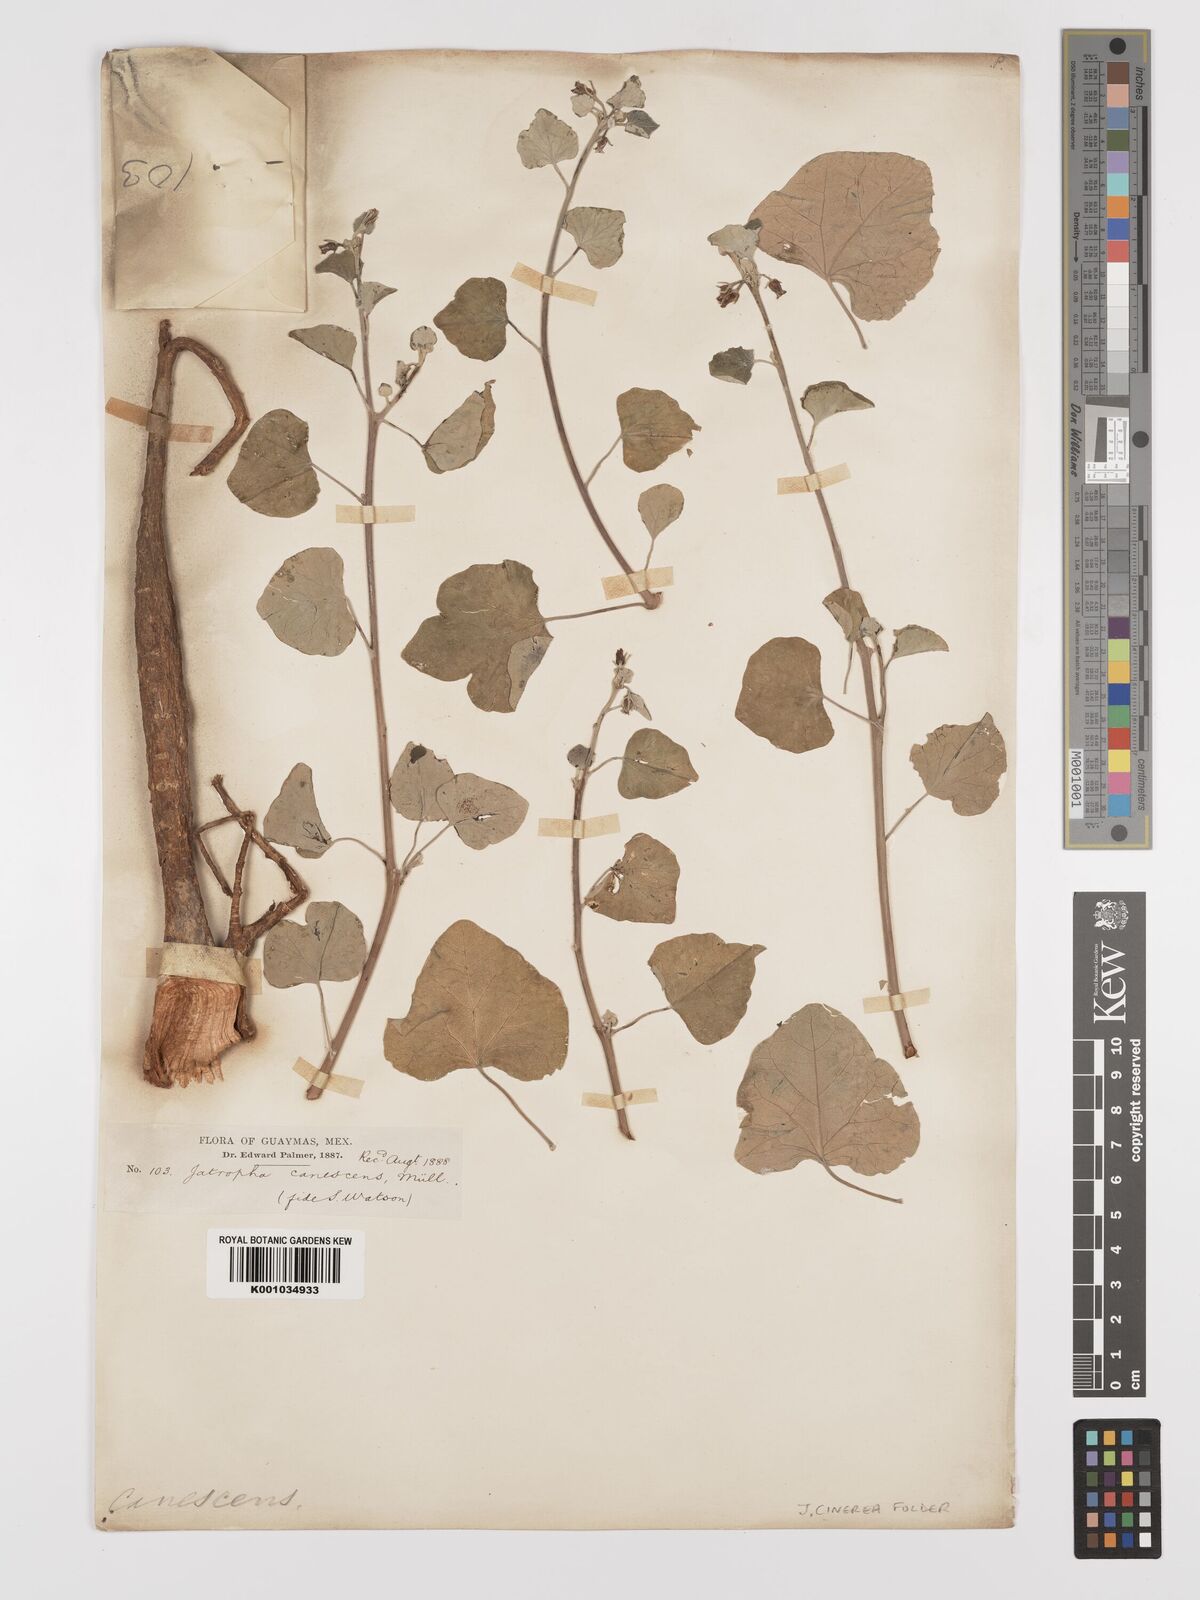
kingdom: Plantae
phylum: Tracheophyta
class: Magnoliopsida
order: Malpighiales
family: Euphorbiaceae
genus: Jatropha
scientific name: Jatropha cinerea
